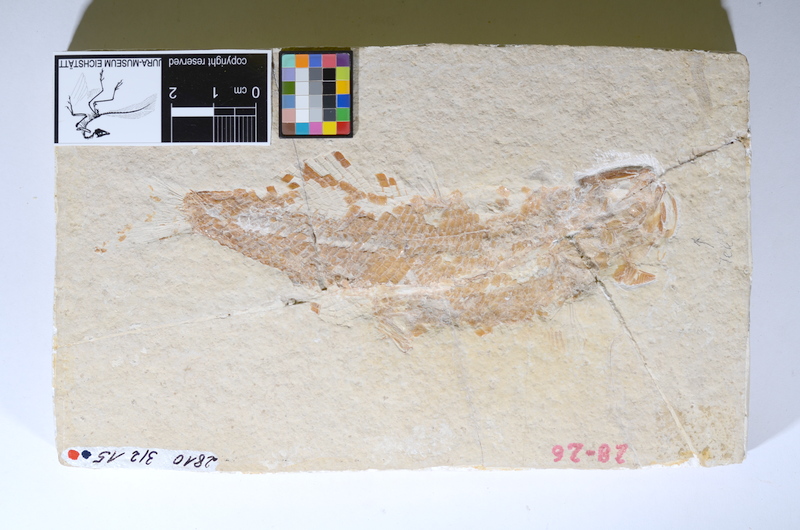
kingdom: Animalia
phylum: Chordata
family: Ankylophoridae
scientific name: Ankylophoridae
